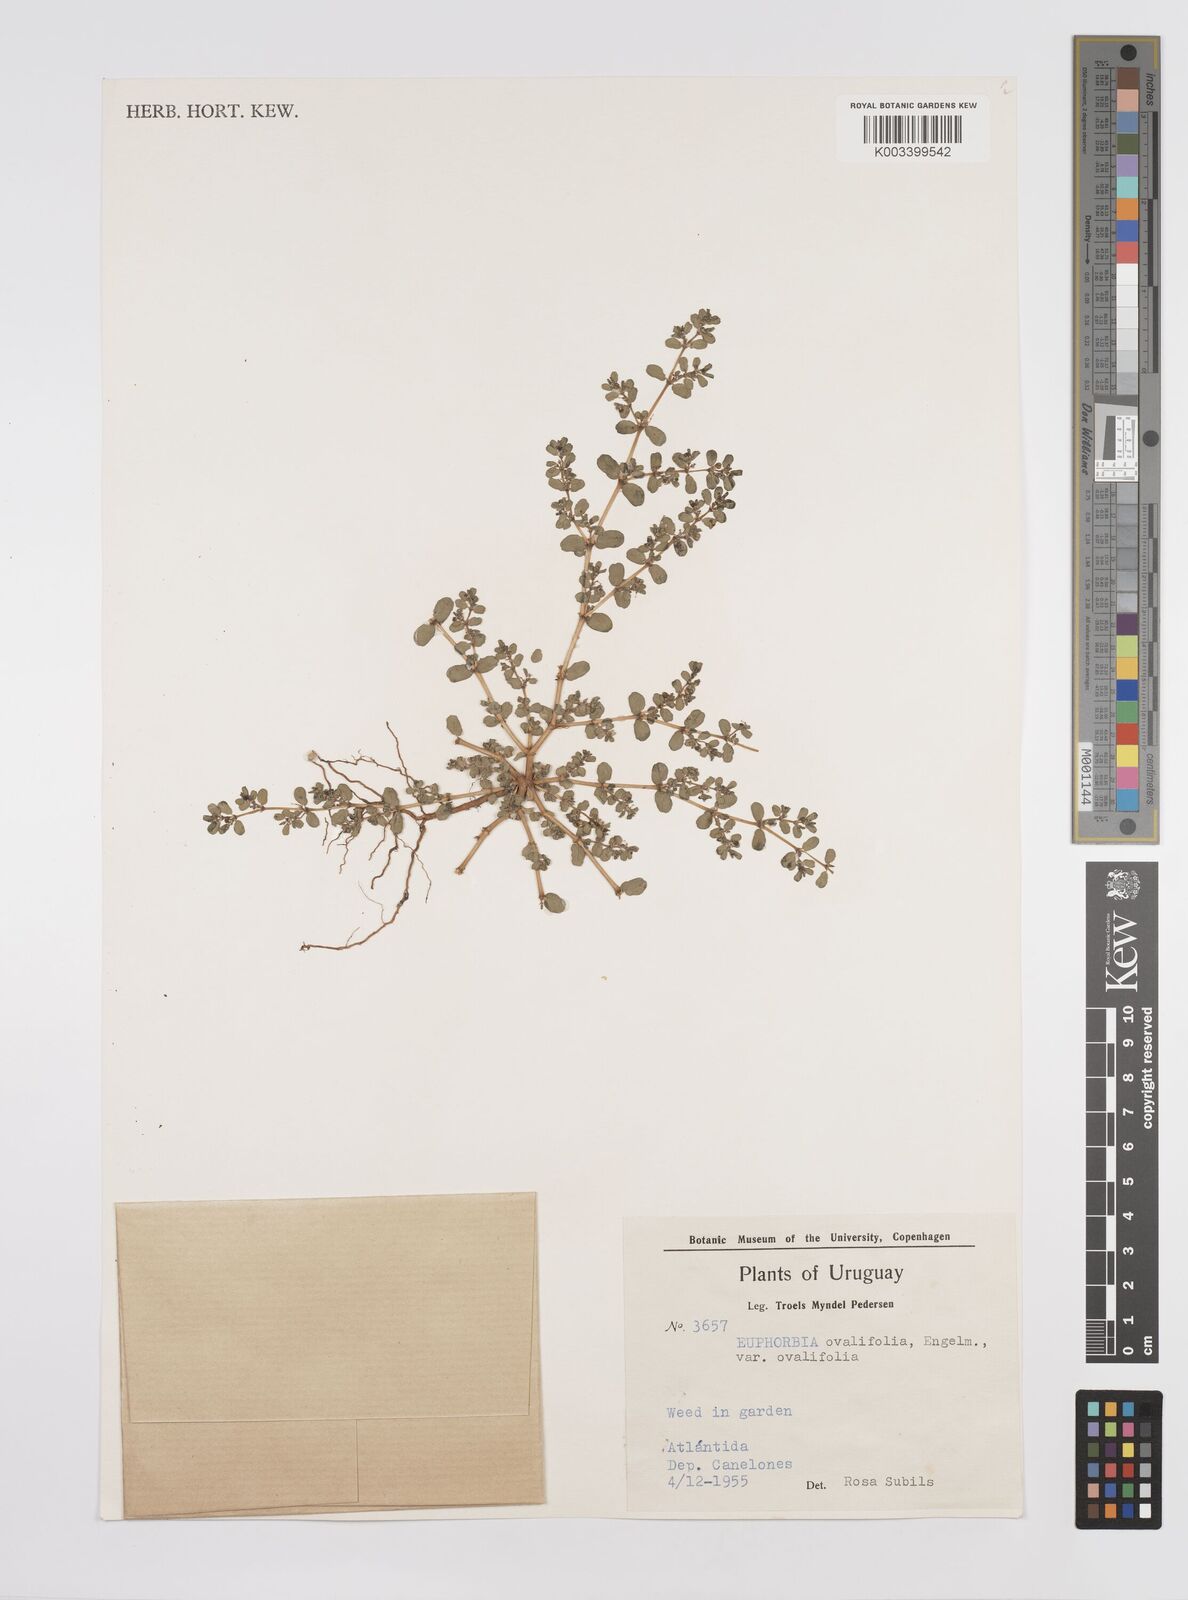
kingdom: Plantae
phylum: Tracheophyta
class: Magnoliopsida
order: Malpighiales
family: Euphorbiaceae
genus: Euphorbia
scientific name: Euphorbia
